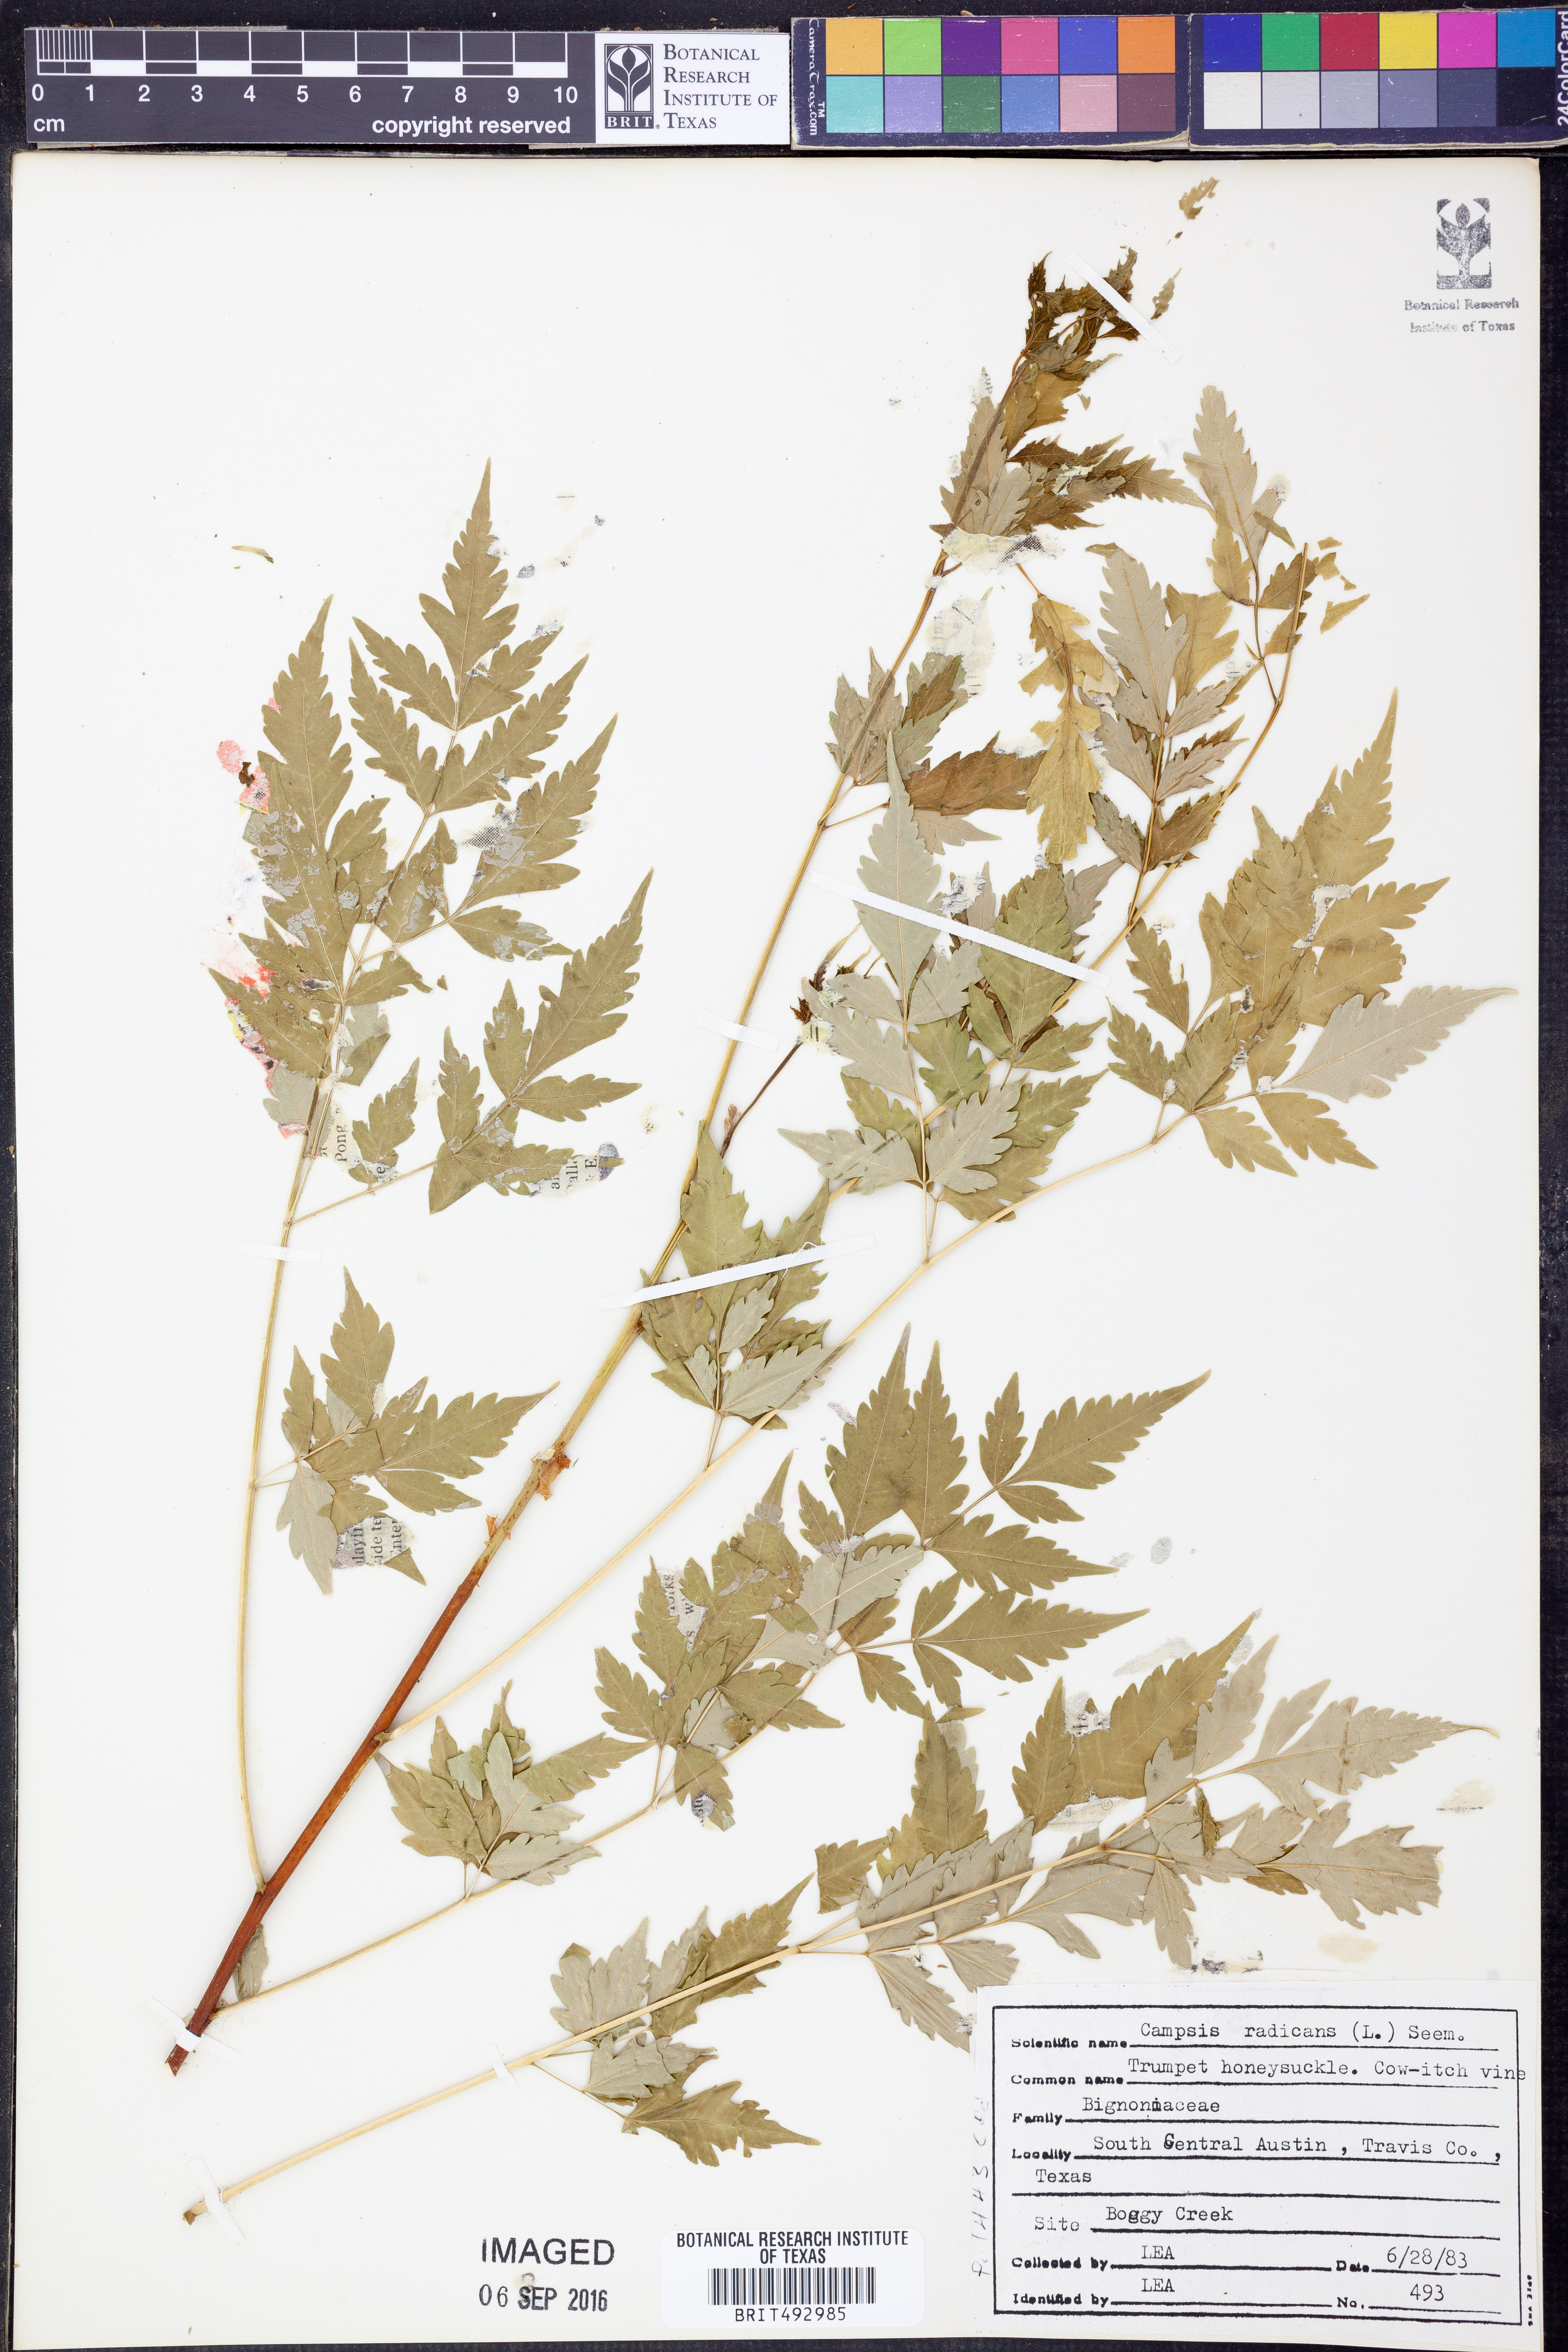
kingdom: Plantae
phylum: Tracheophyta
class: Magnoliopsida
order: Lamiales
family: Bignoniaceae
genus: Campsis
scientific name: Campsis radicans
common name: Trumpet-creeper
